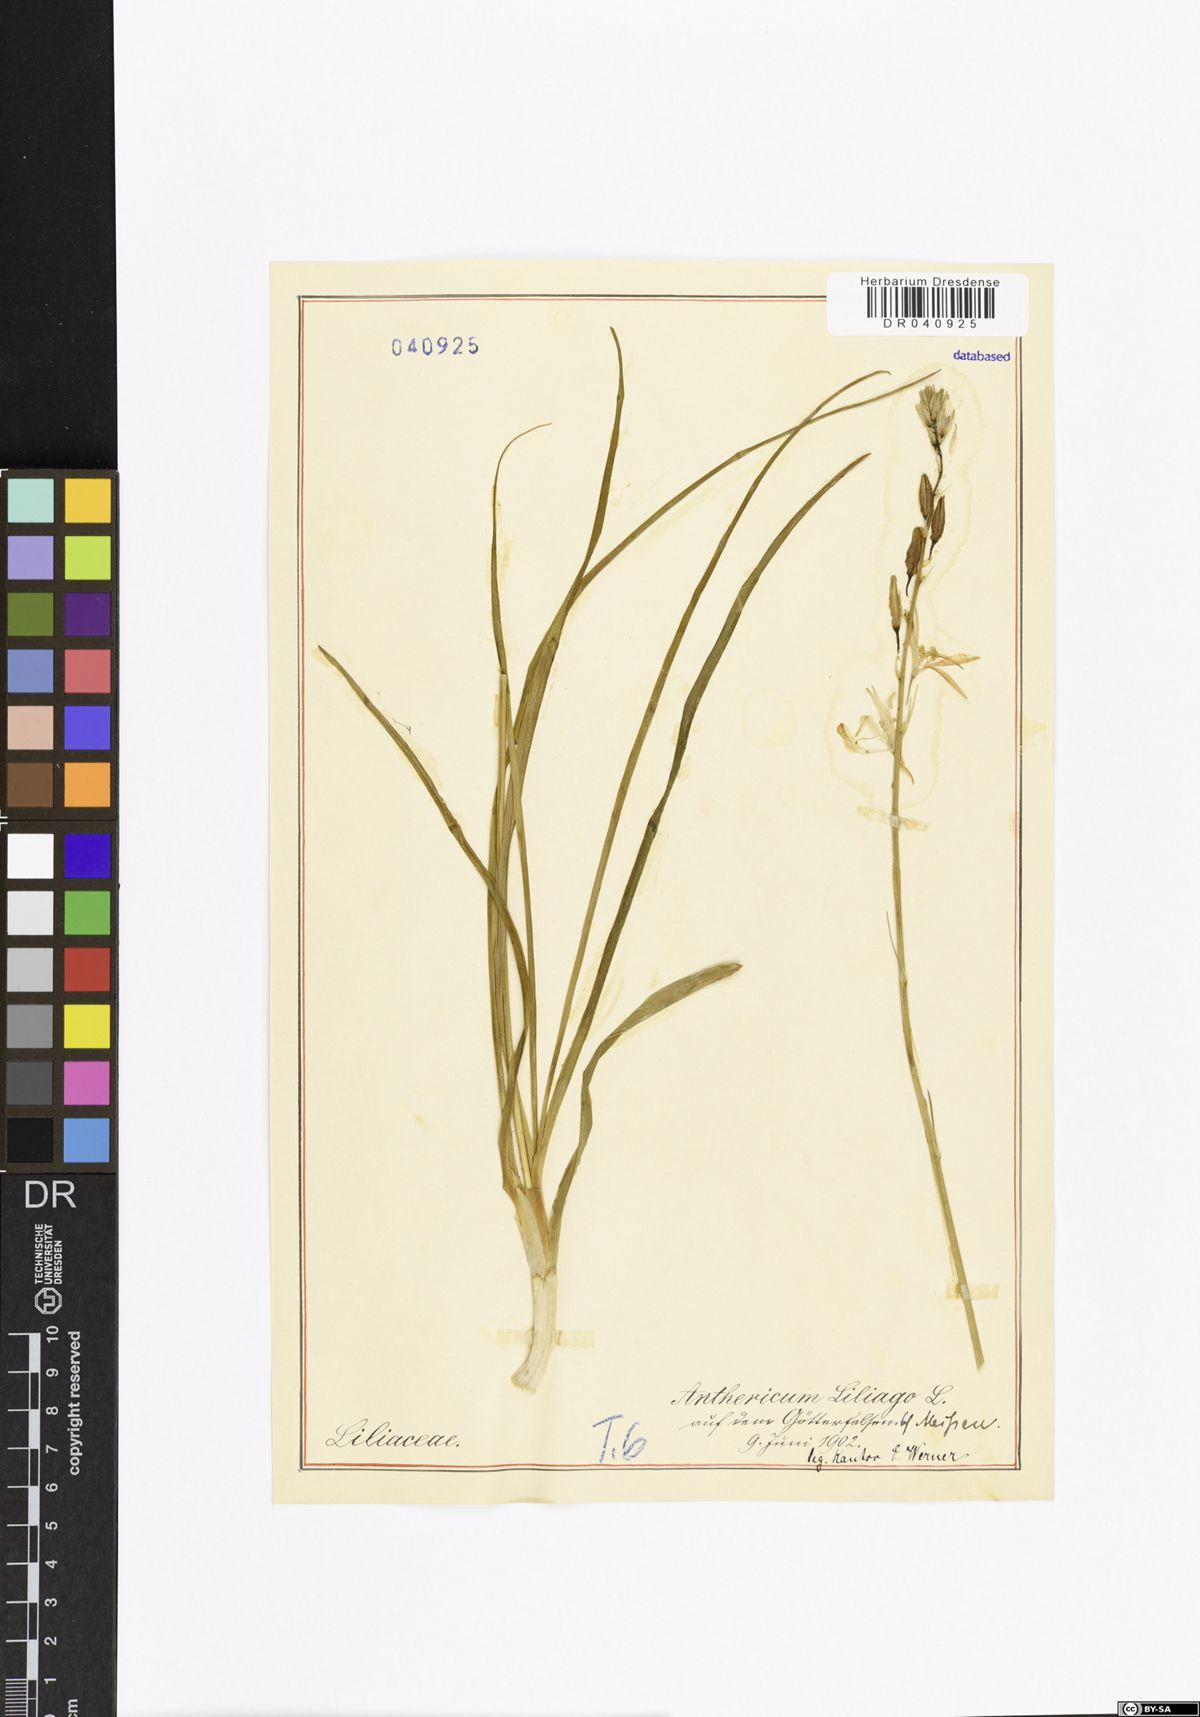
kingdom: Plantae
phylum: Tracheophyta
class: Liliopsida
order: Asparagales
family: Asparagaceae
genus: Anthericum
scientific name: Anthericum liliago
